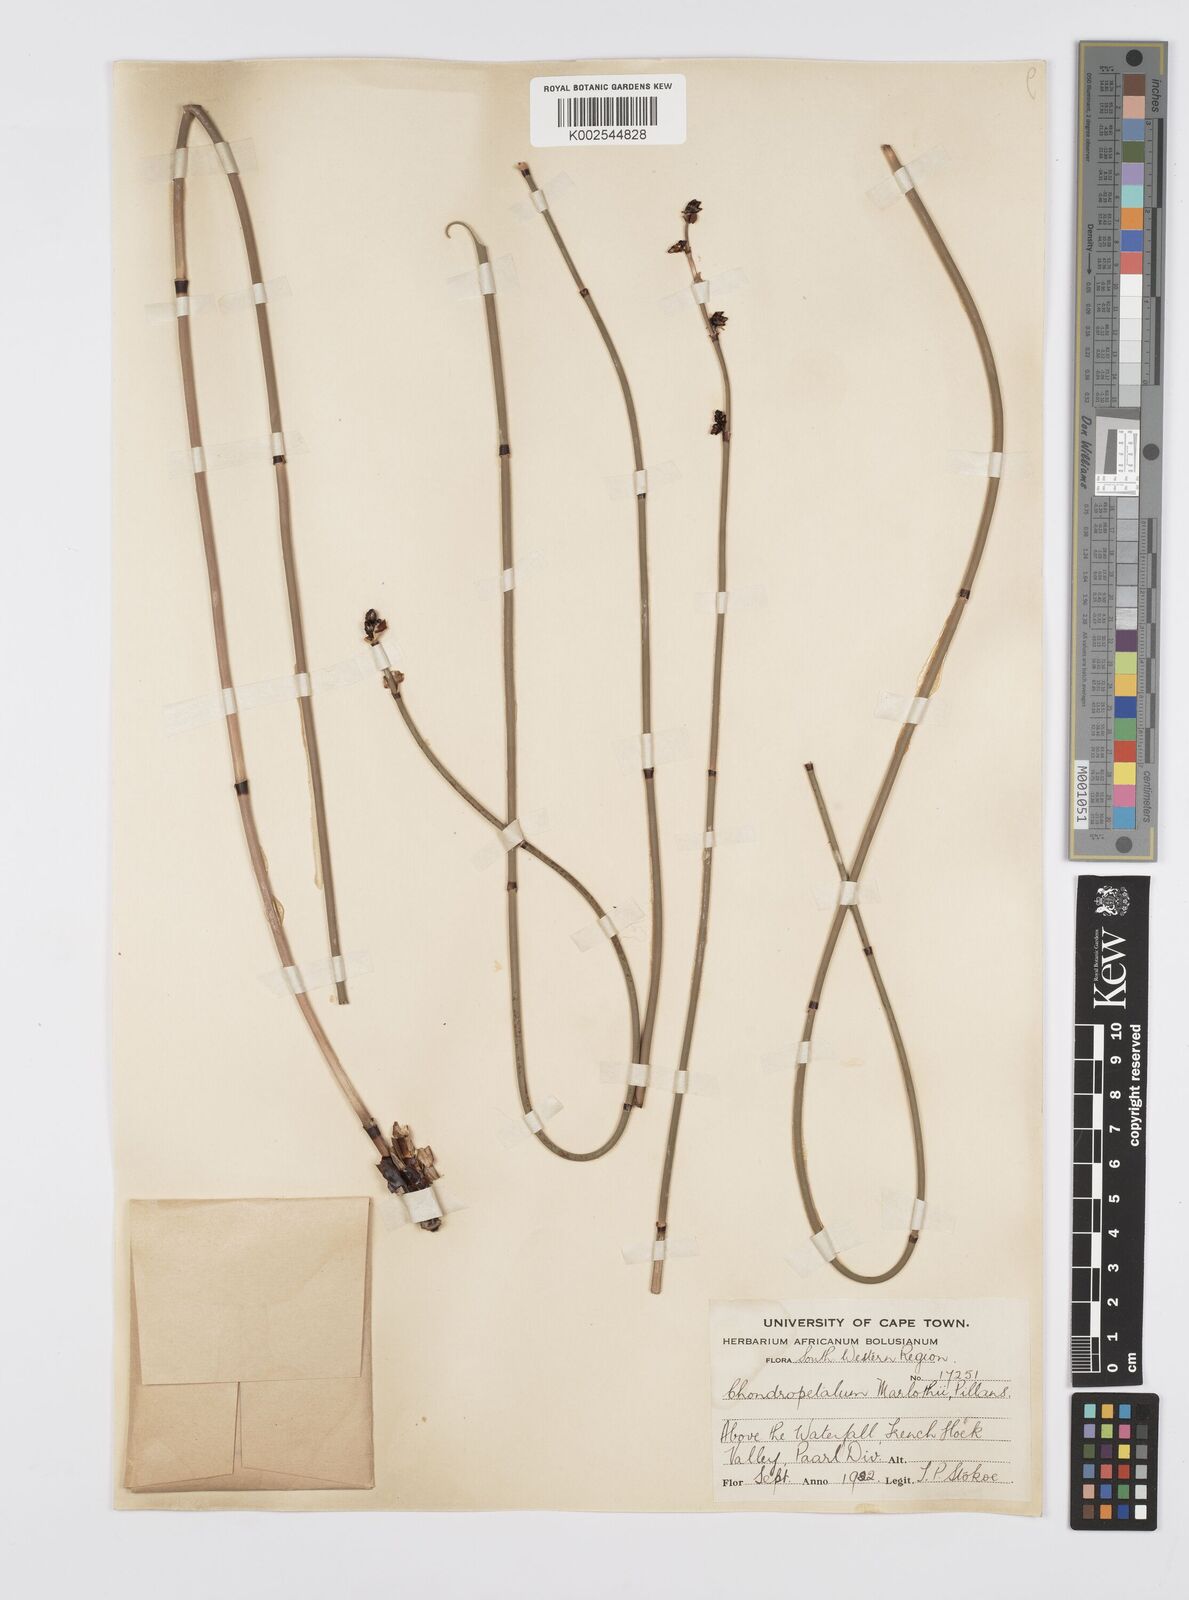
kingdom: Plantae
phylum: Tracheophyta
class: Liliopsida
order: Poales
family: Restionaceae
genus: Elegia
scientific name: Elegia marlothii
